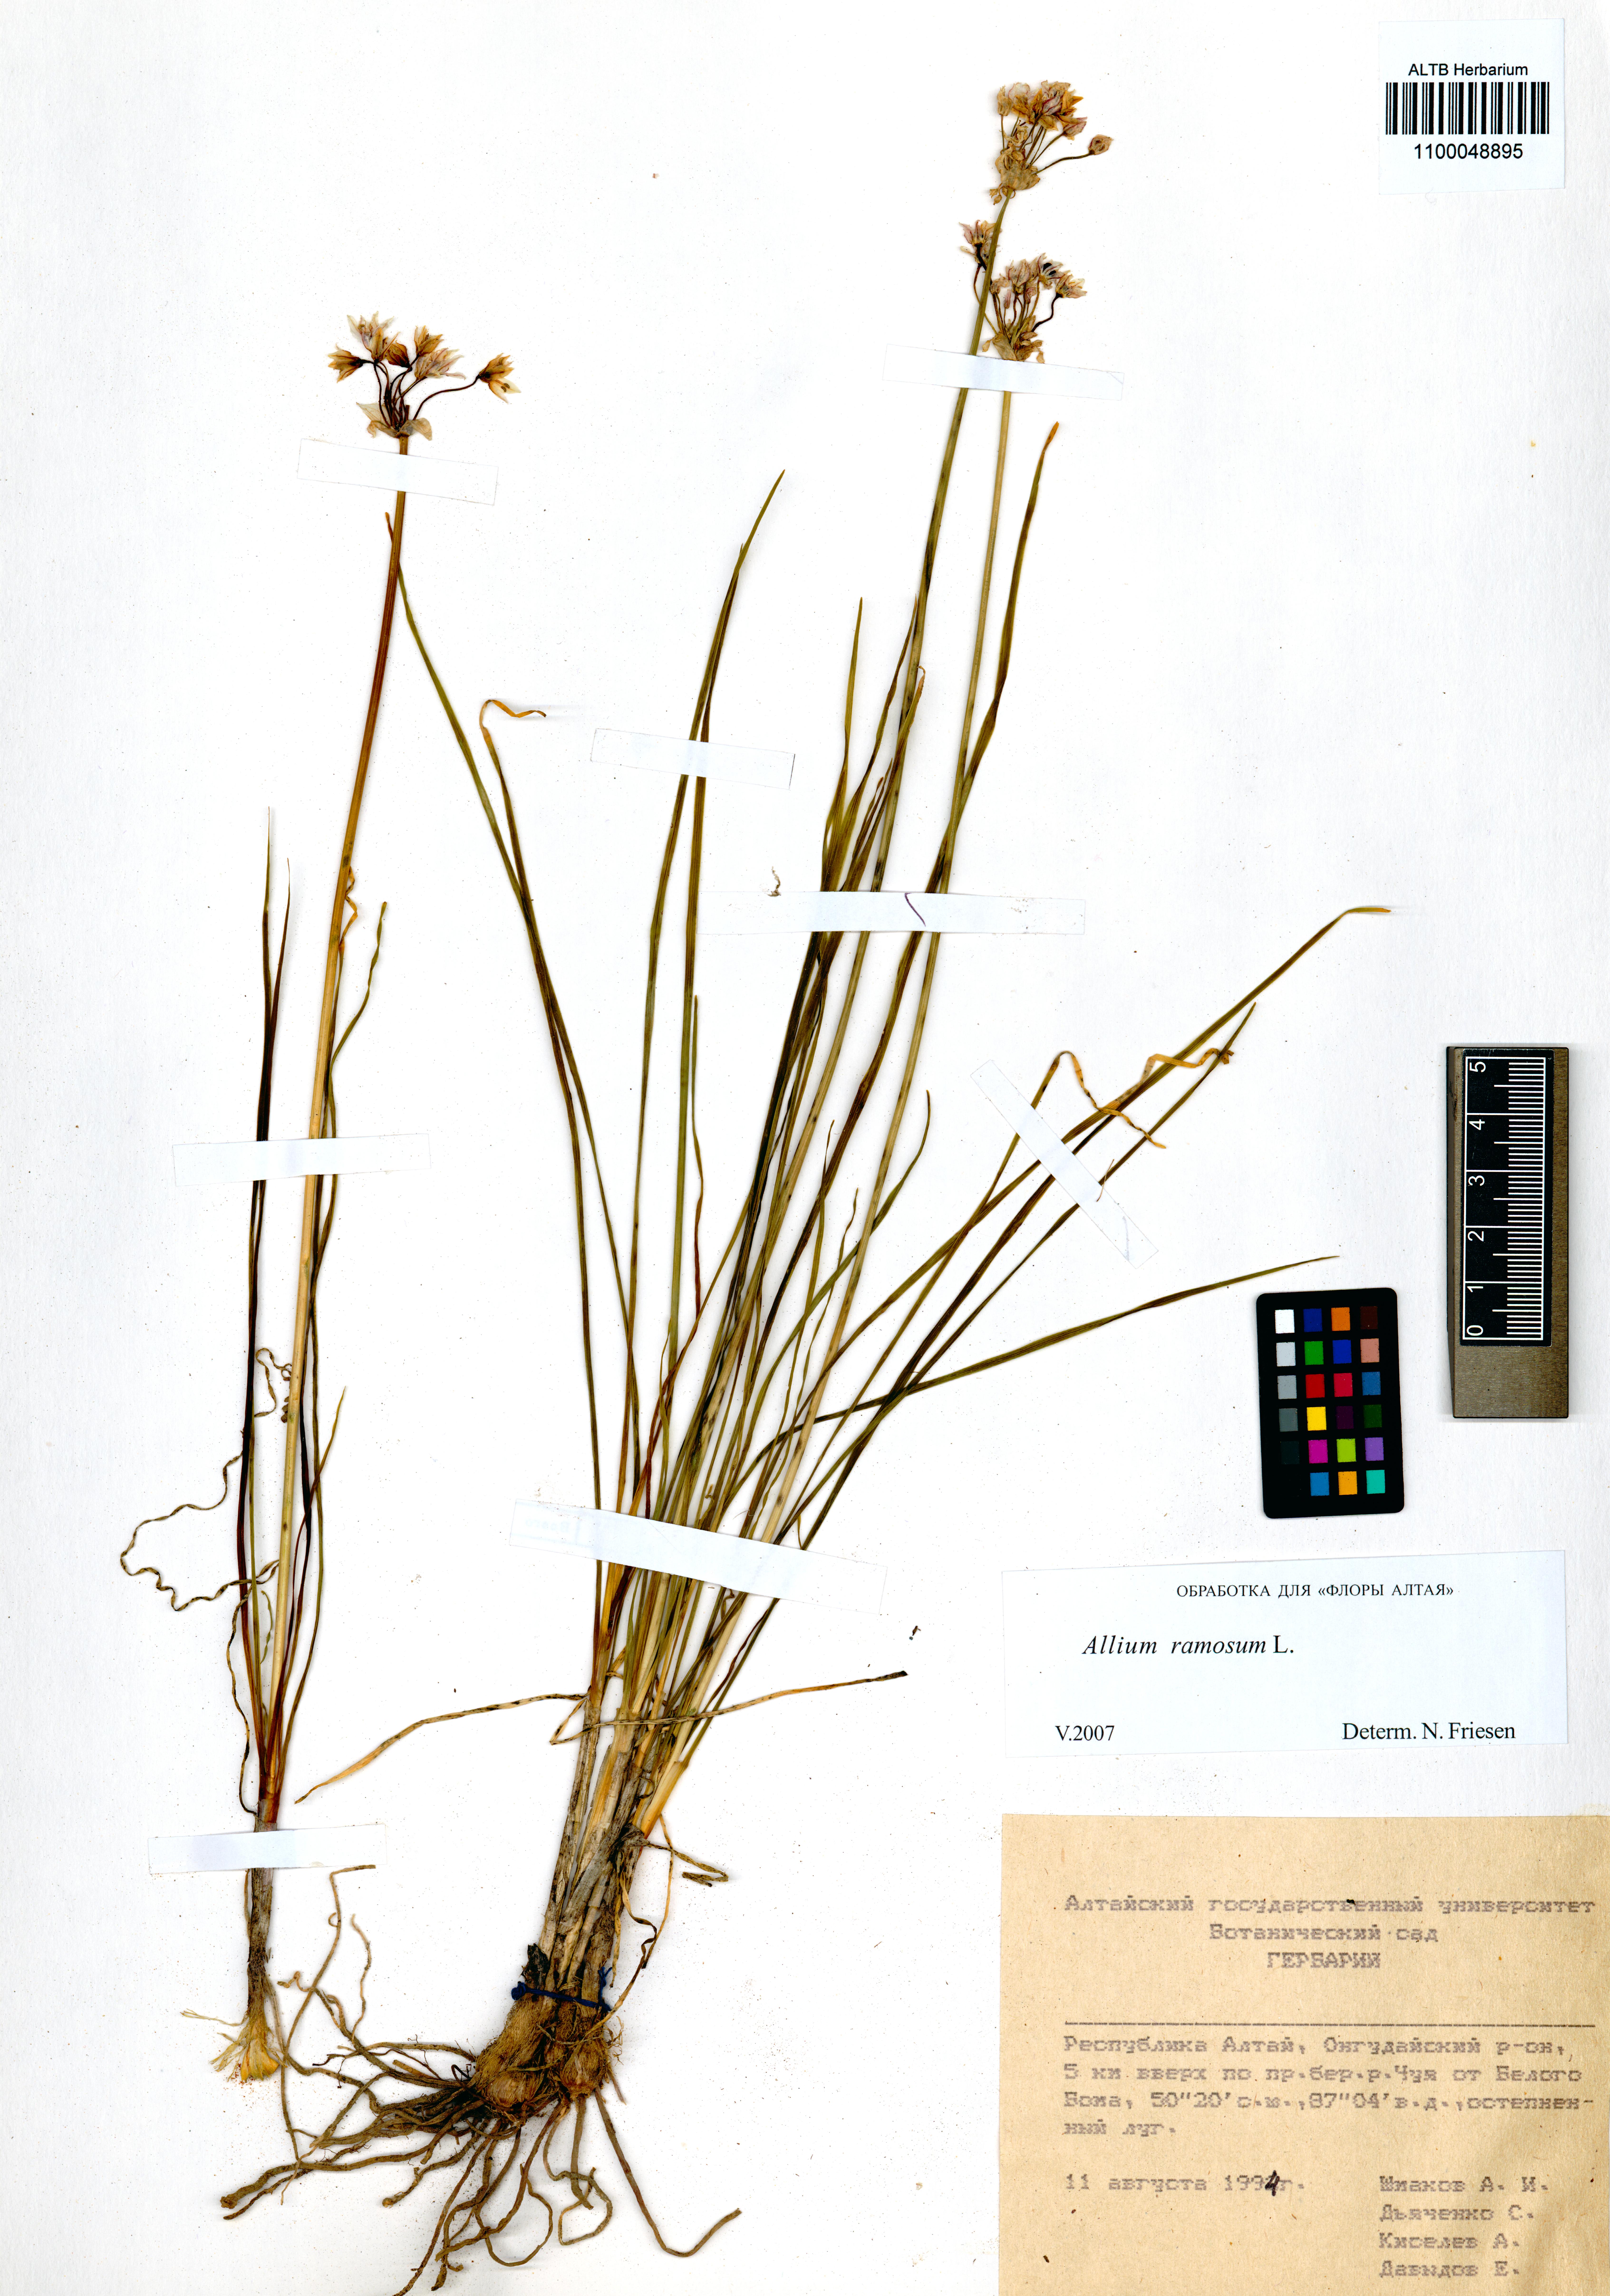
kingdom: Plantae
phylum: Tracheophyta
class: Liliopsida
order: Asparagales
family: Amaryllidaceae
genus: Allium
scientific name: Allium ramosum
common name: Fragrant garlic
